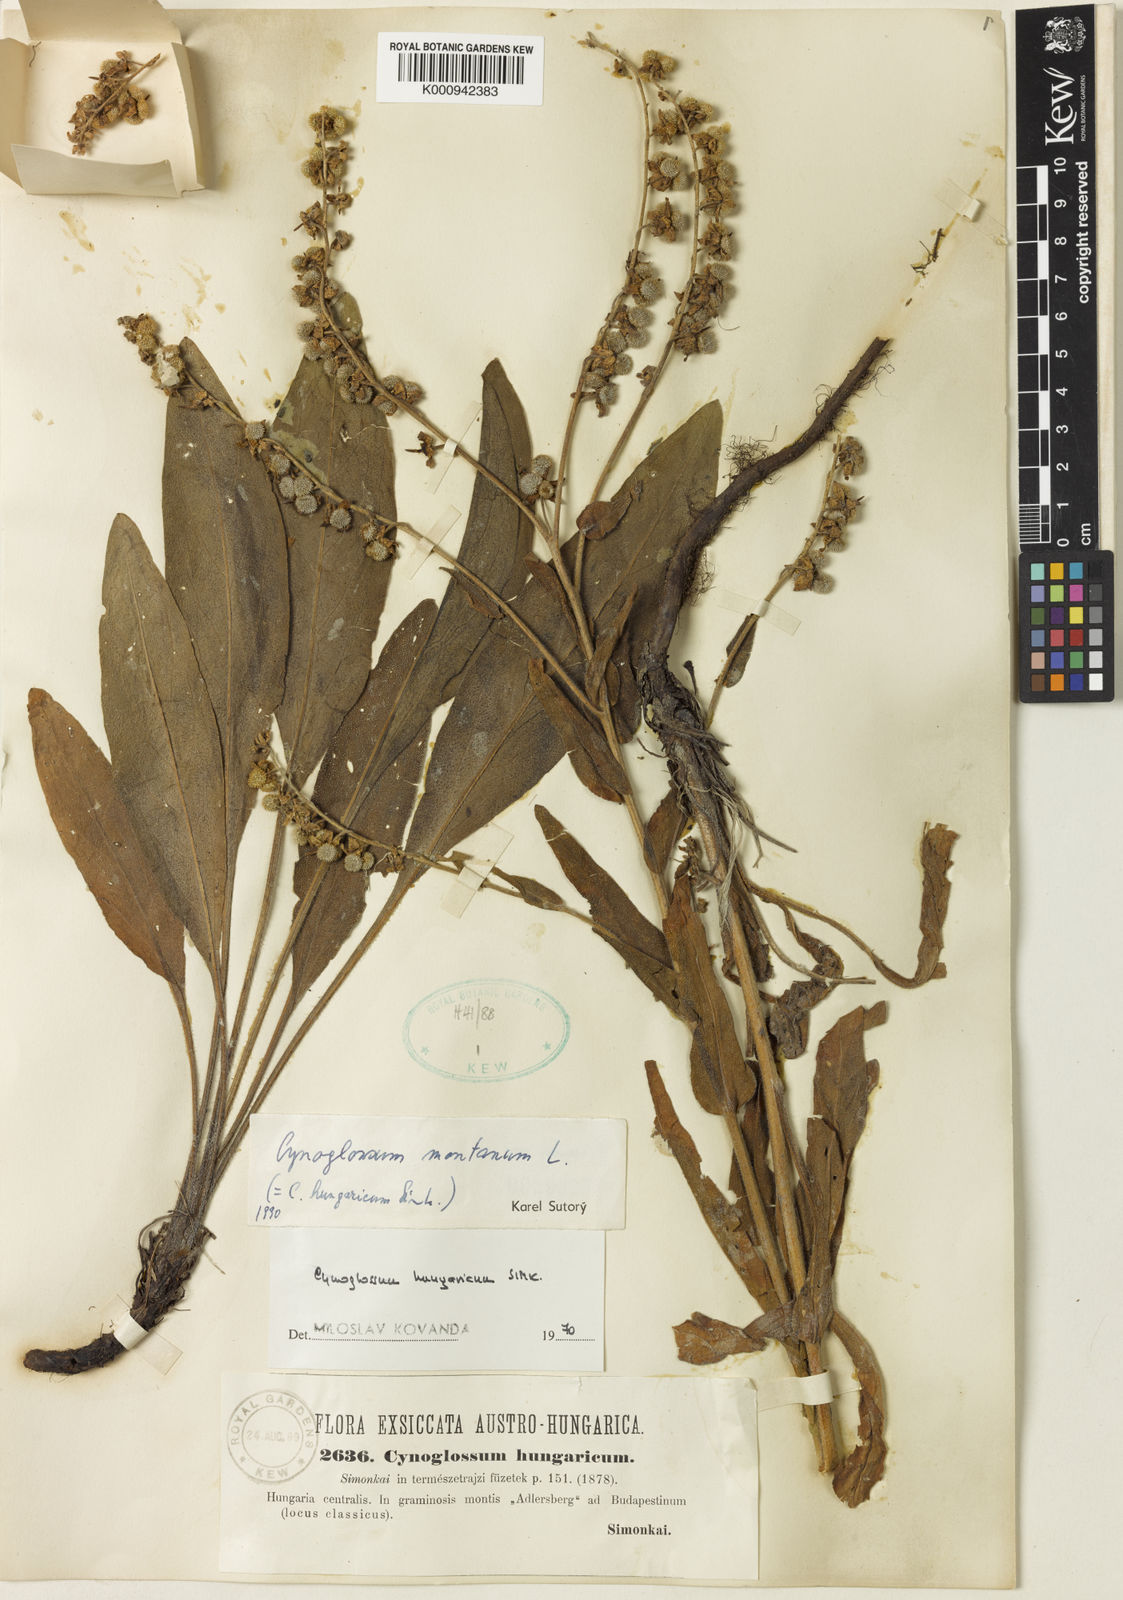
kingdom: Plantae
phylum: Tracheophyta
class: Magnoliopsida
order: Boraginales
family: Boraginaceae
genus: Cynoglossum
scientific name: Cynoglossum montanum
